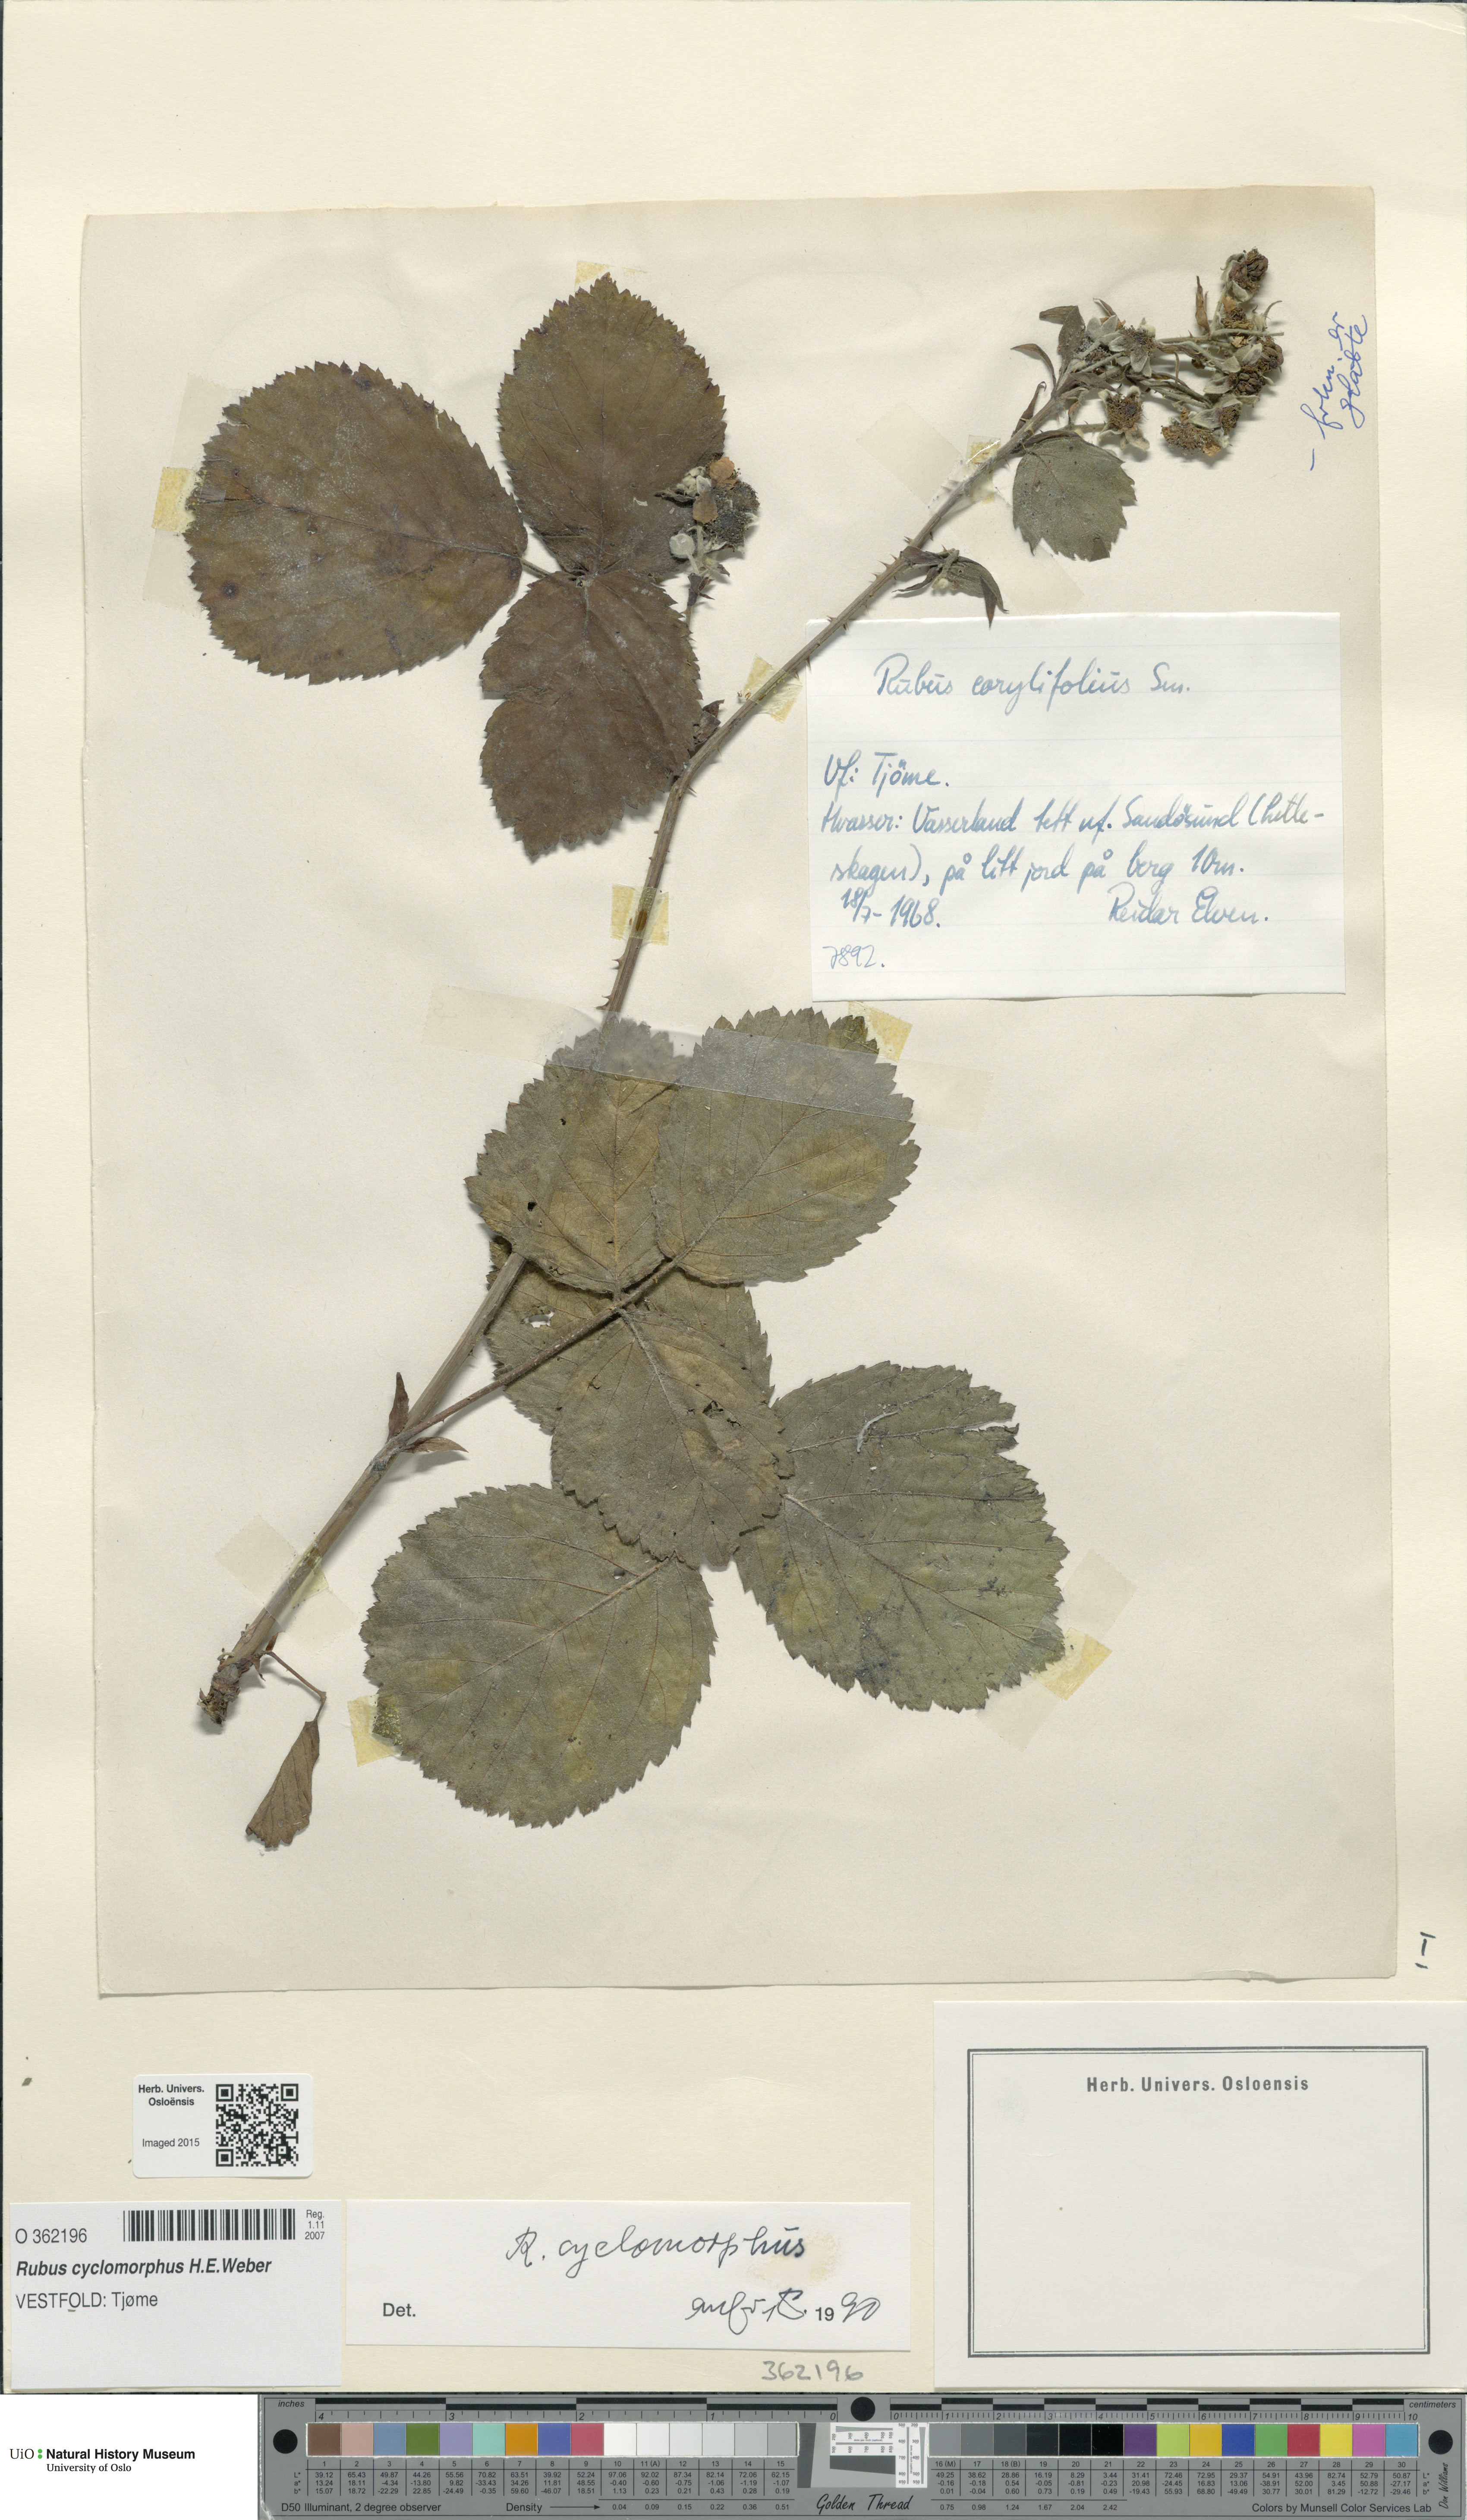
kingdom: Plantae
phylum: Tracheophyta
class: Magnoliopsida
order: Rosales
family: Rosaceae
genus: Rubus
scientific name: Rubus cyclomorphus
